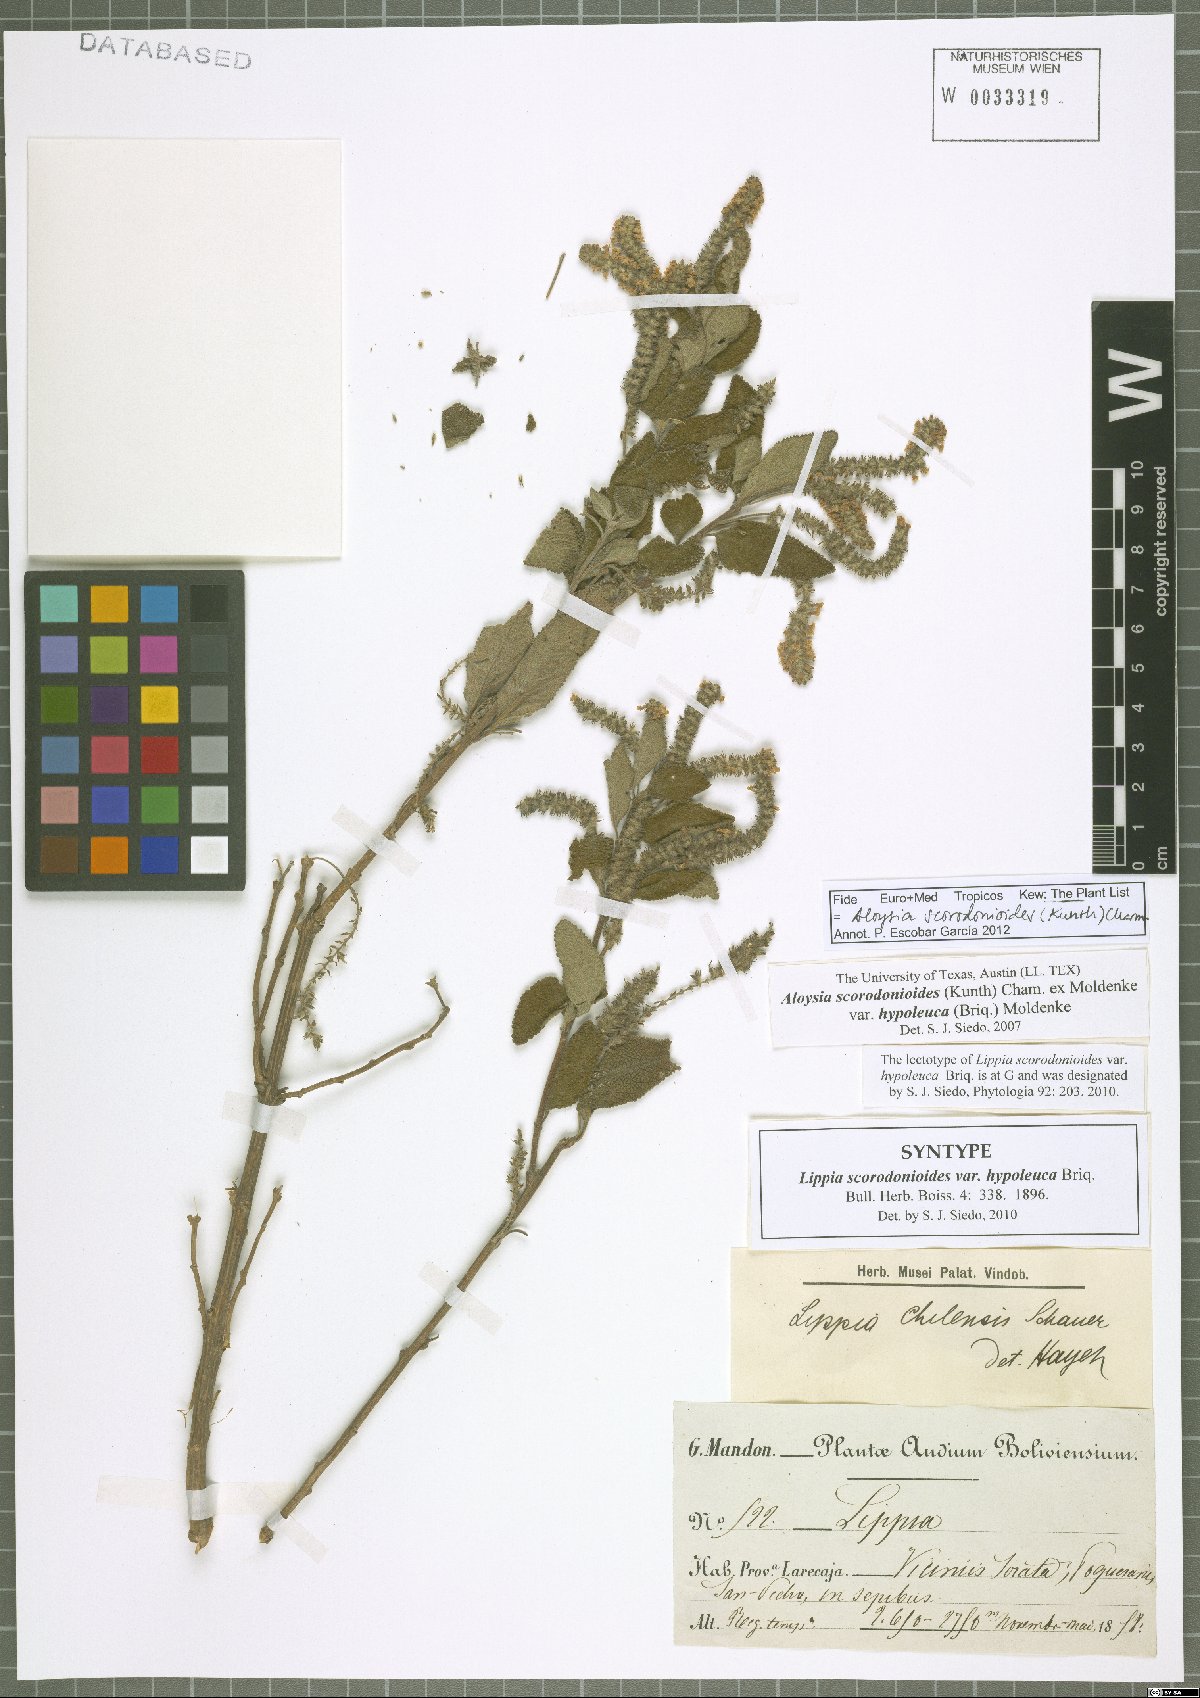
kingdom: Plantae
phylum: Tracheophyta
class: Magnoliopsida
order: Lamiales
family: Verbenaceae
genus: Aloysia
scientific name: Aloysia scorodonioides
